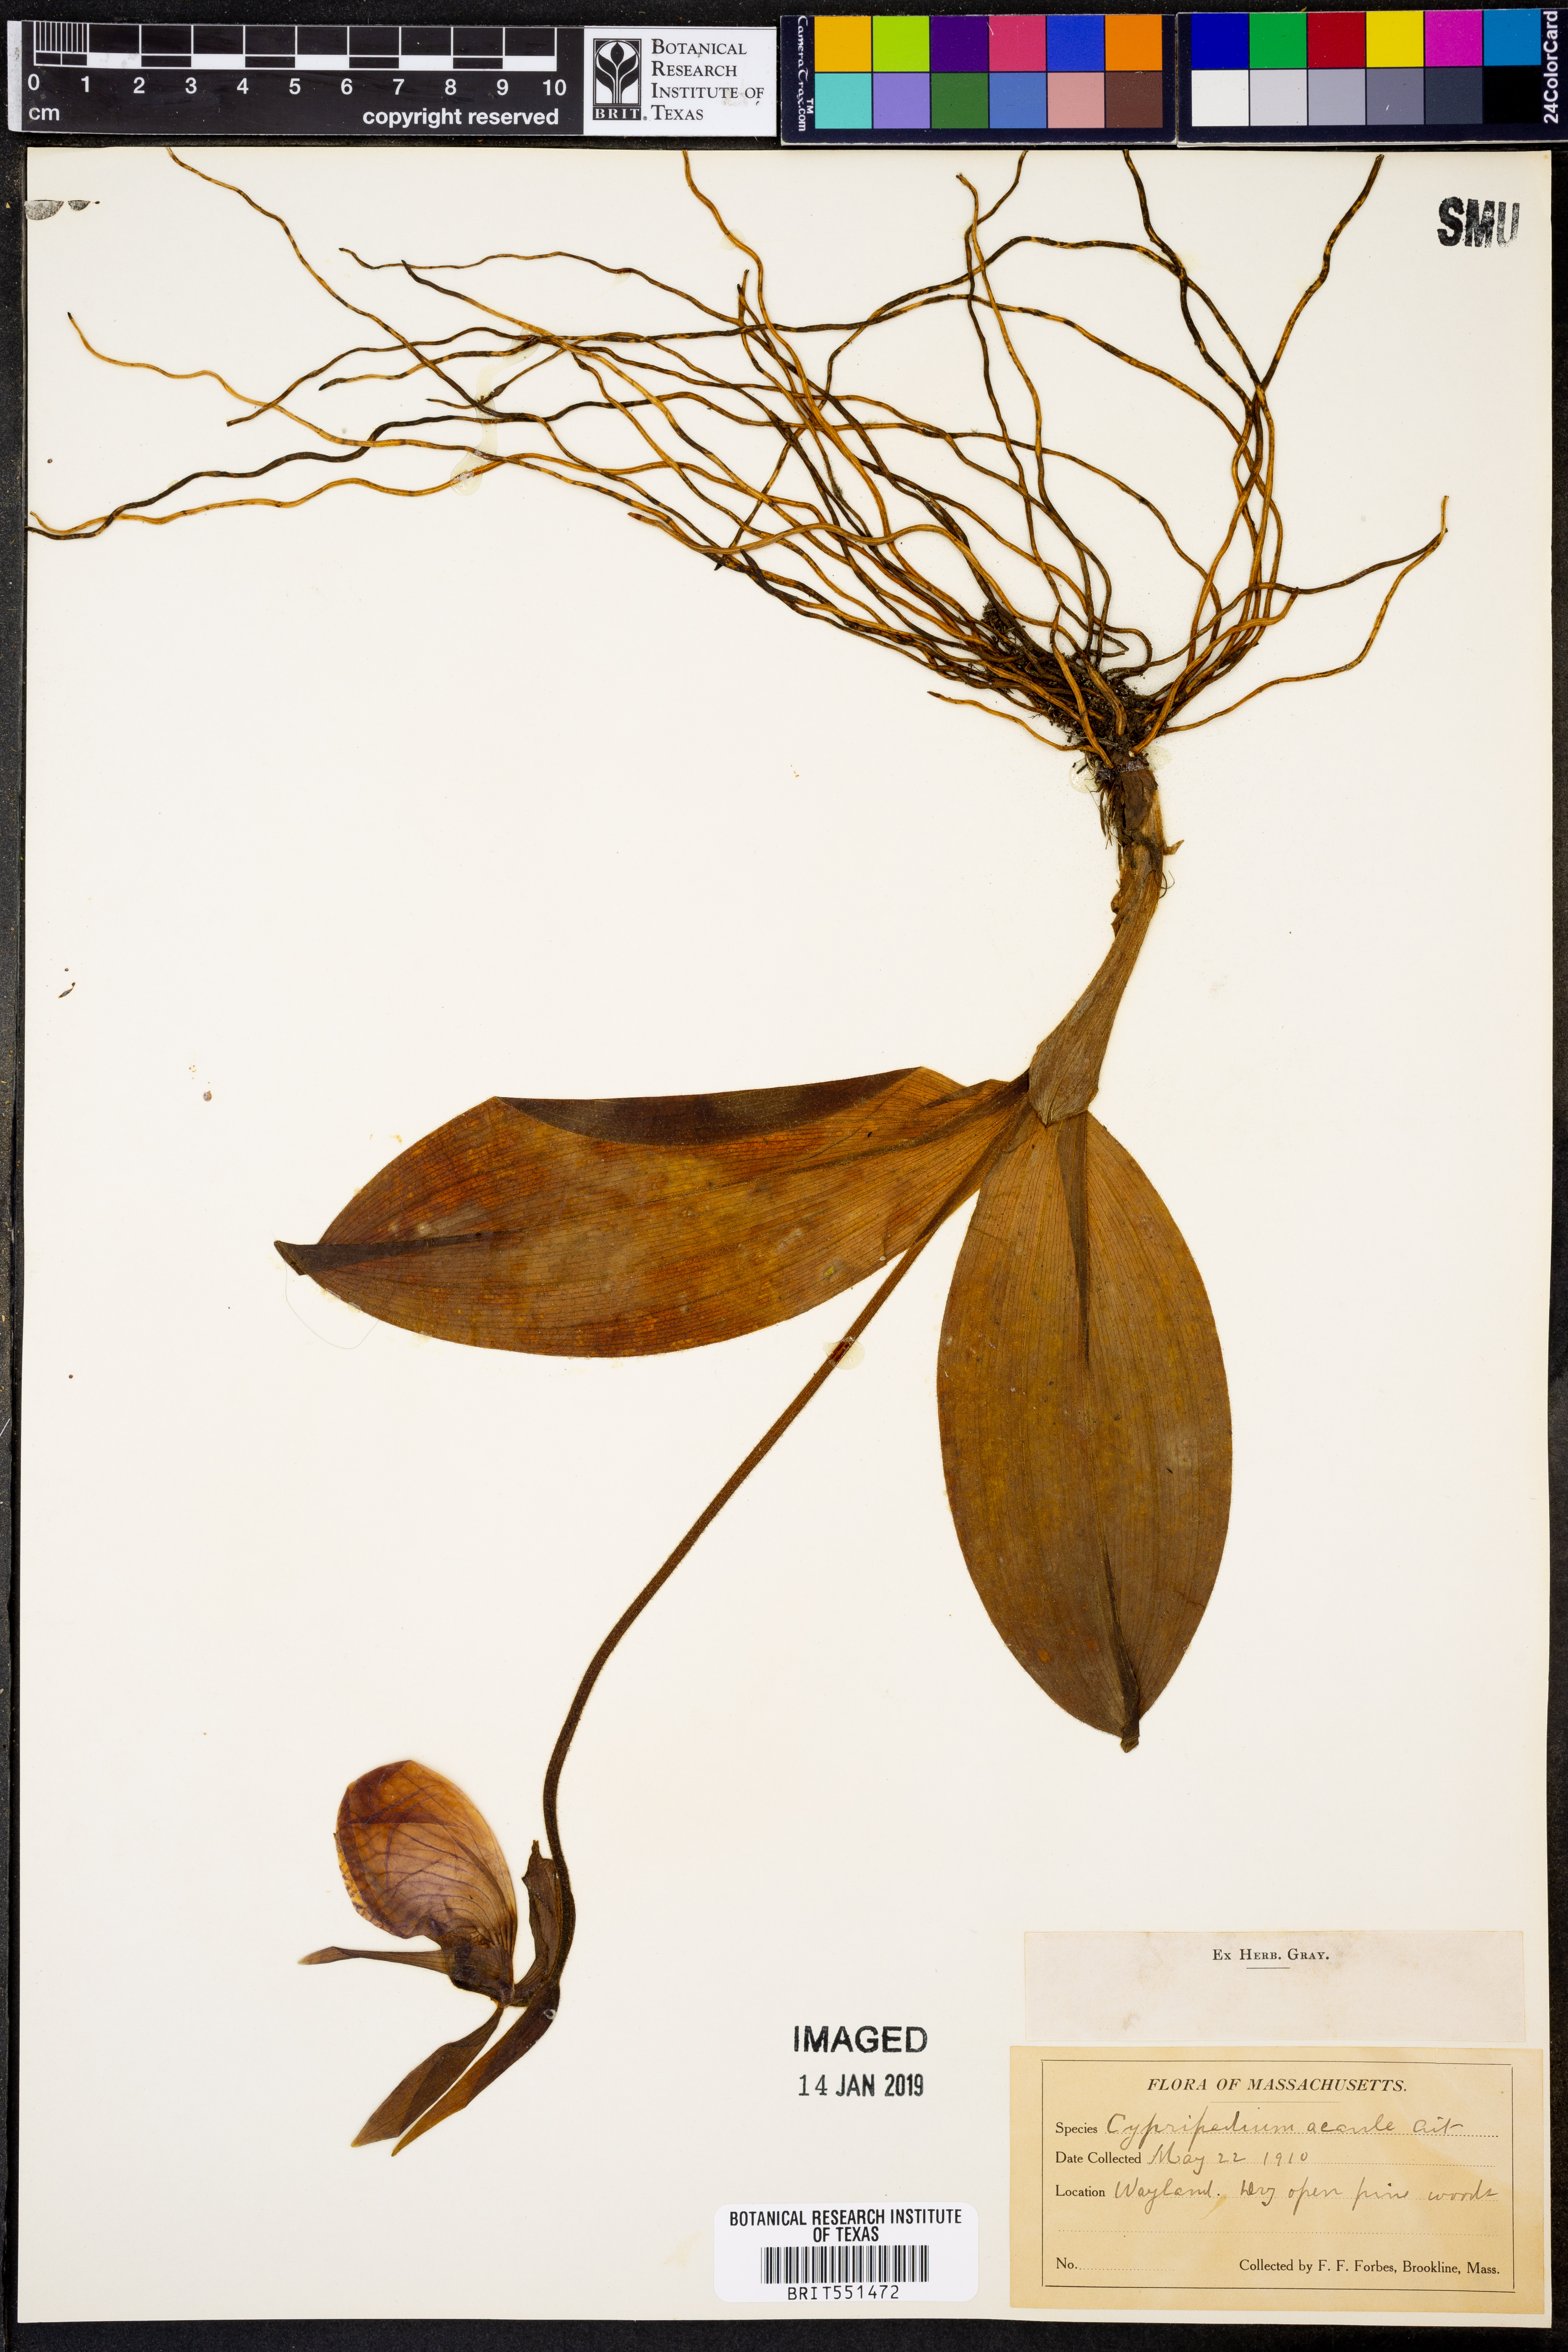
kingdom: Plantae
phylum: Tracheophyta
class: Liliopsida
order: Asparagales
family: Orchidaceae
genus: Cypripedium
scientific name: Cypripedium acaule
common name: Pink lady's-slipper
